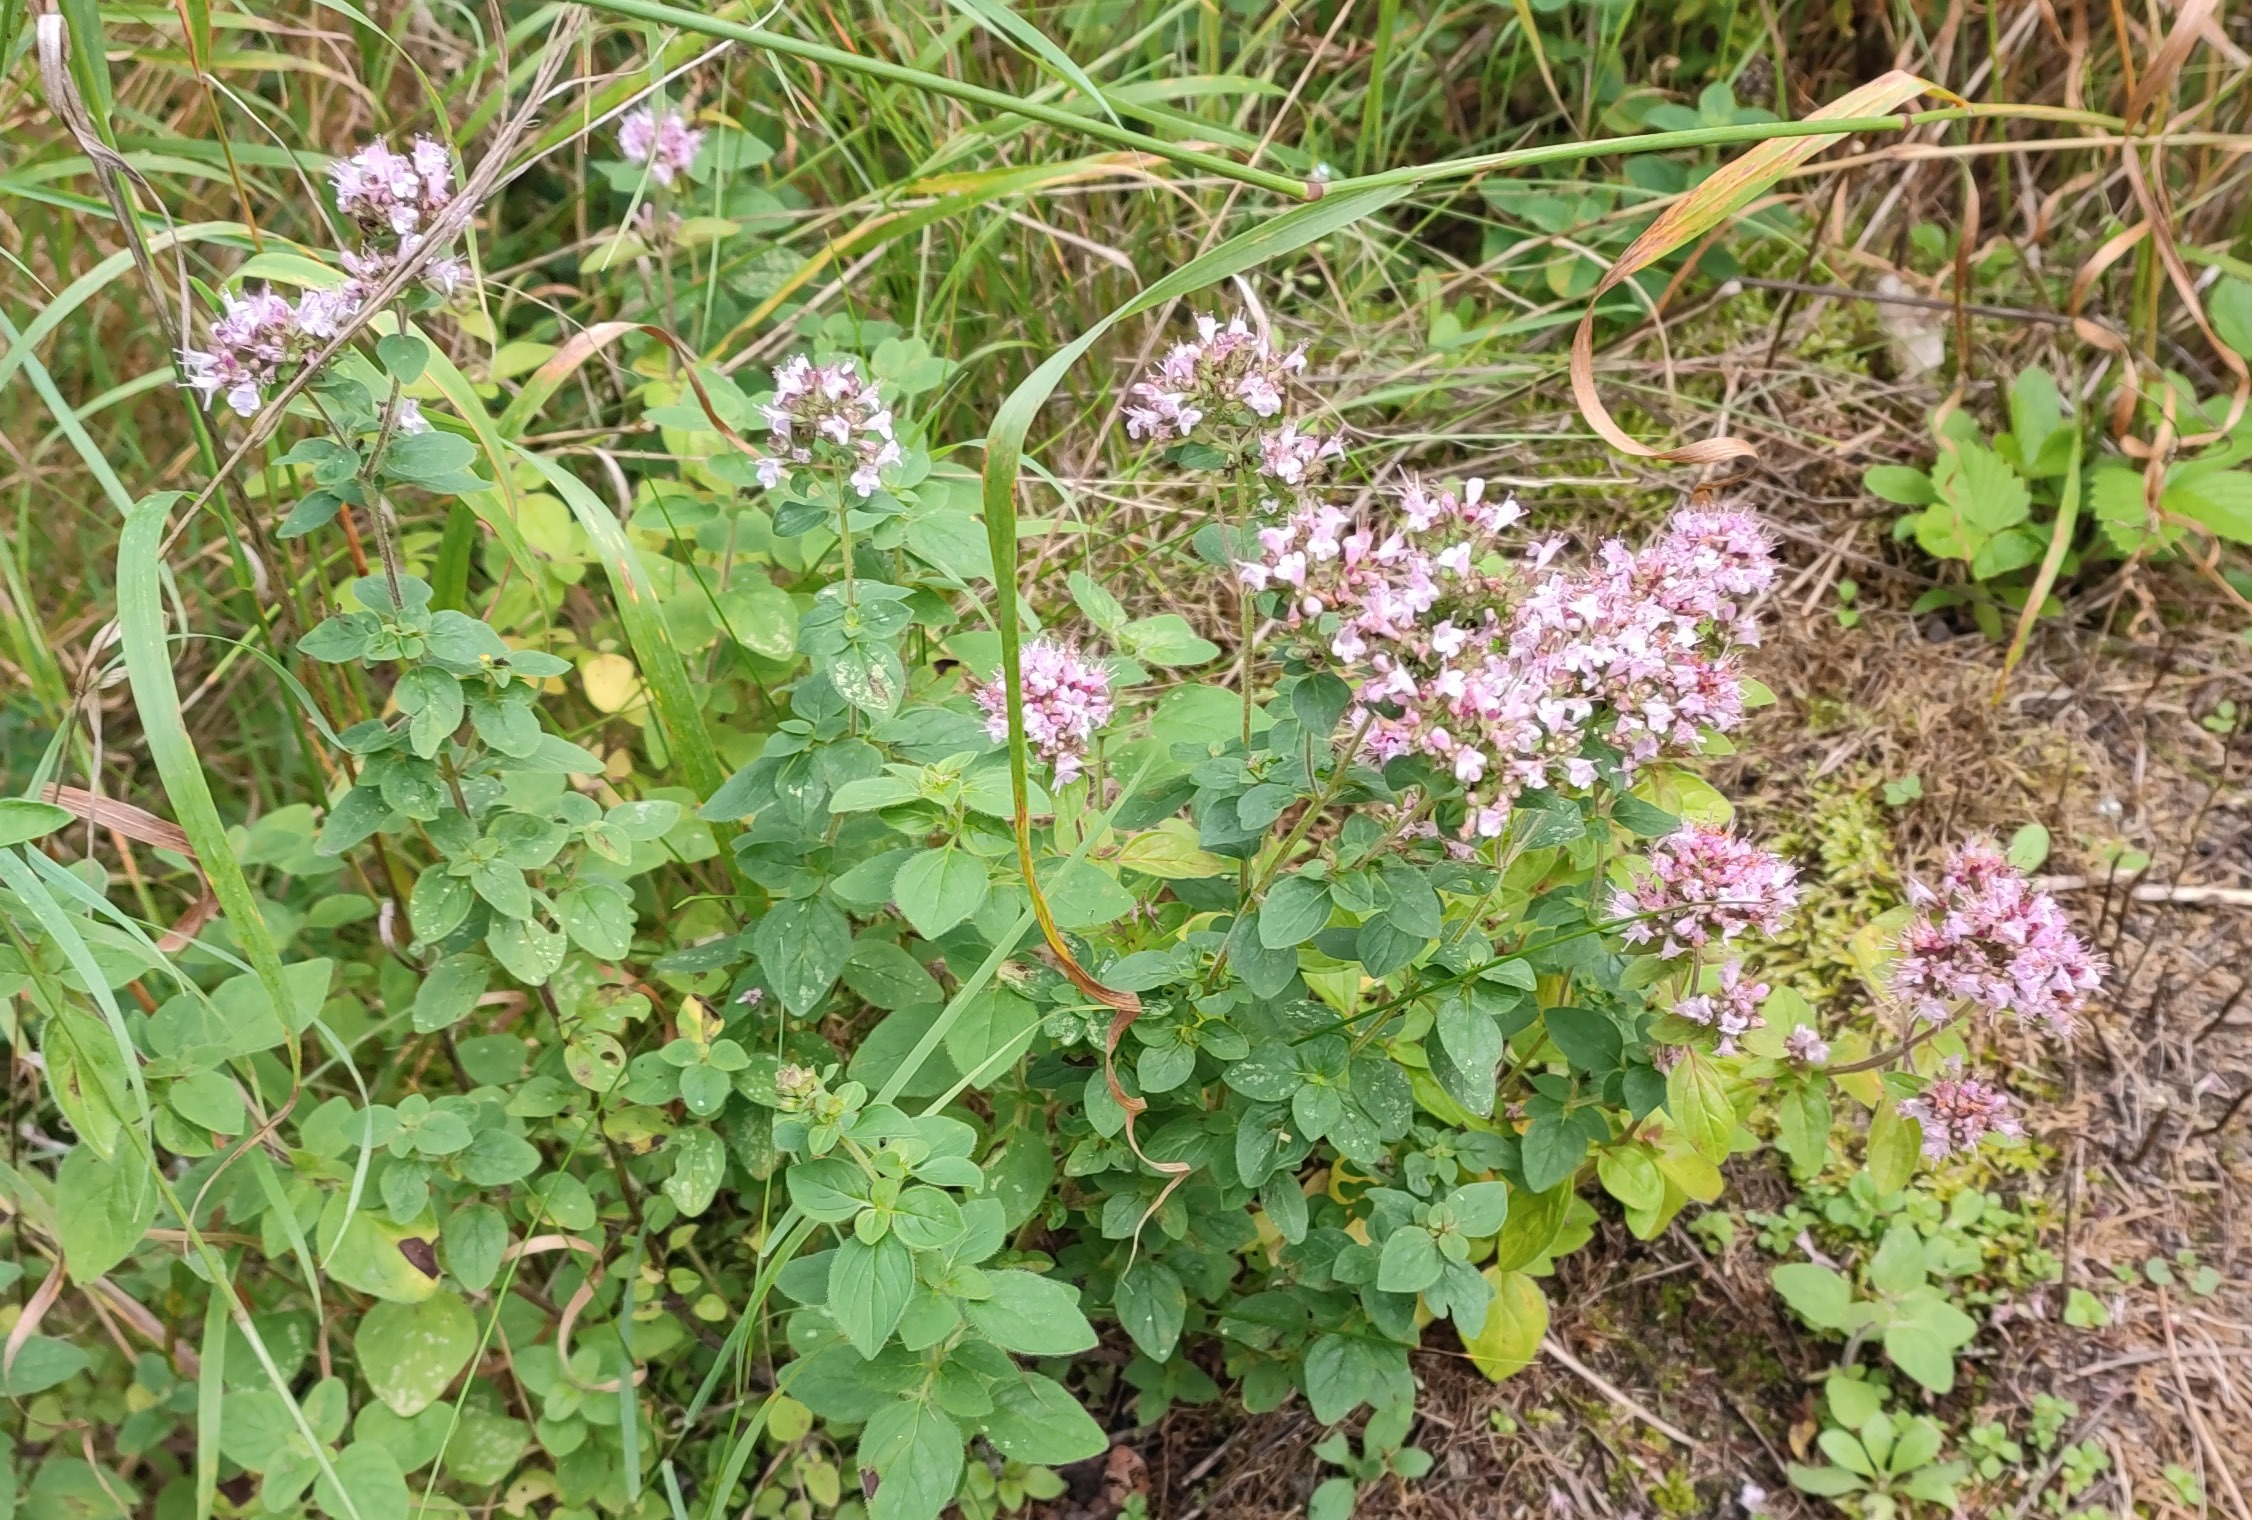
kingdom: Plantae
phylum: Tracheophyta
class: Magnoliopsida
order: Lamiales
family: Lamiaceae
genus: Origanum
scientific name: Origanum vulgare
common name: Merian
